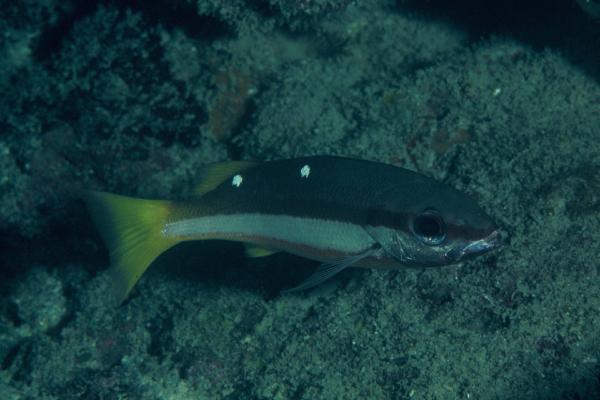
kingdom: Animalia
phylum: Chordata
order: Perciformes
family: Lutjanidae
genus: Lutjanus
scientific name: Lutjanus biguttatus
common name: Two-spot snapper
